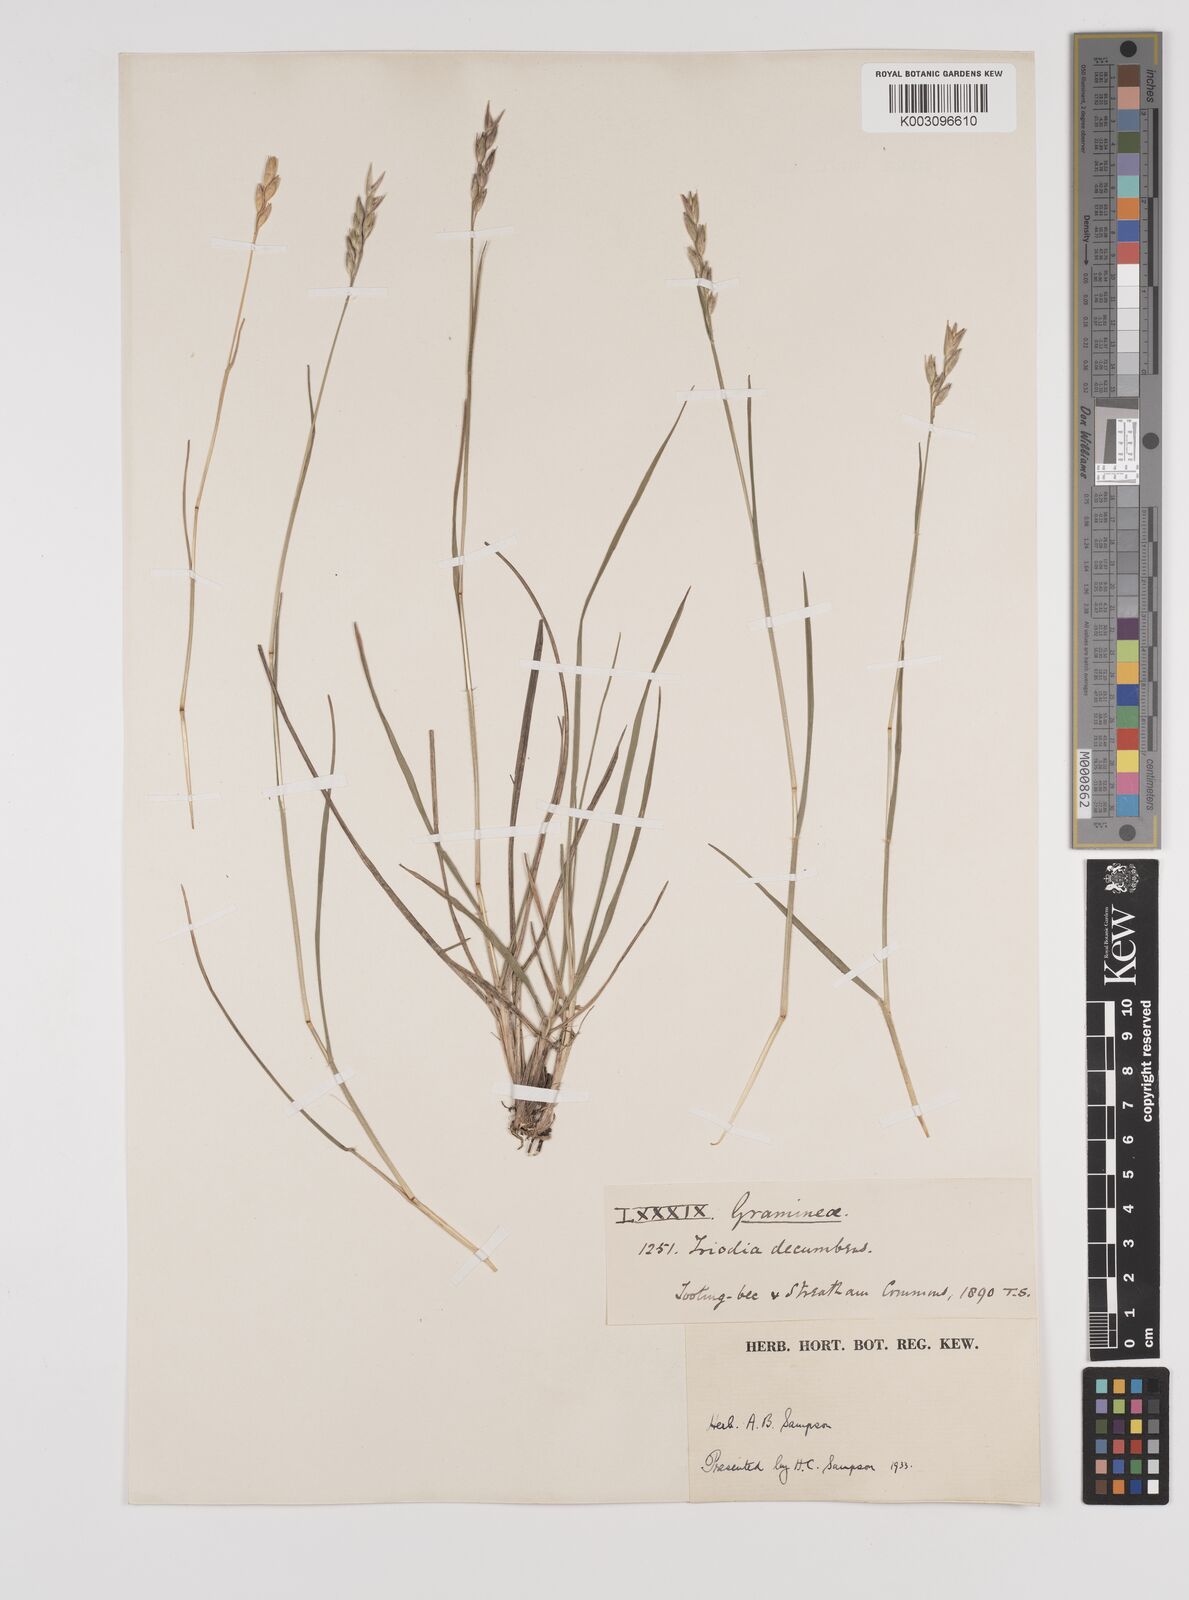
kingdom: Plantae
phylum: Tracheophyta
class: Liliopsida
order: Poales
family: Poaceae
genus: Danthonia
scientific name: Danthonia decumbens
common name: Common heathgrass
